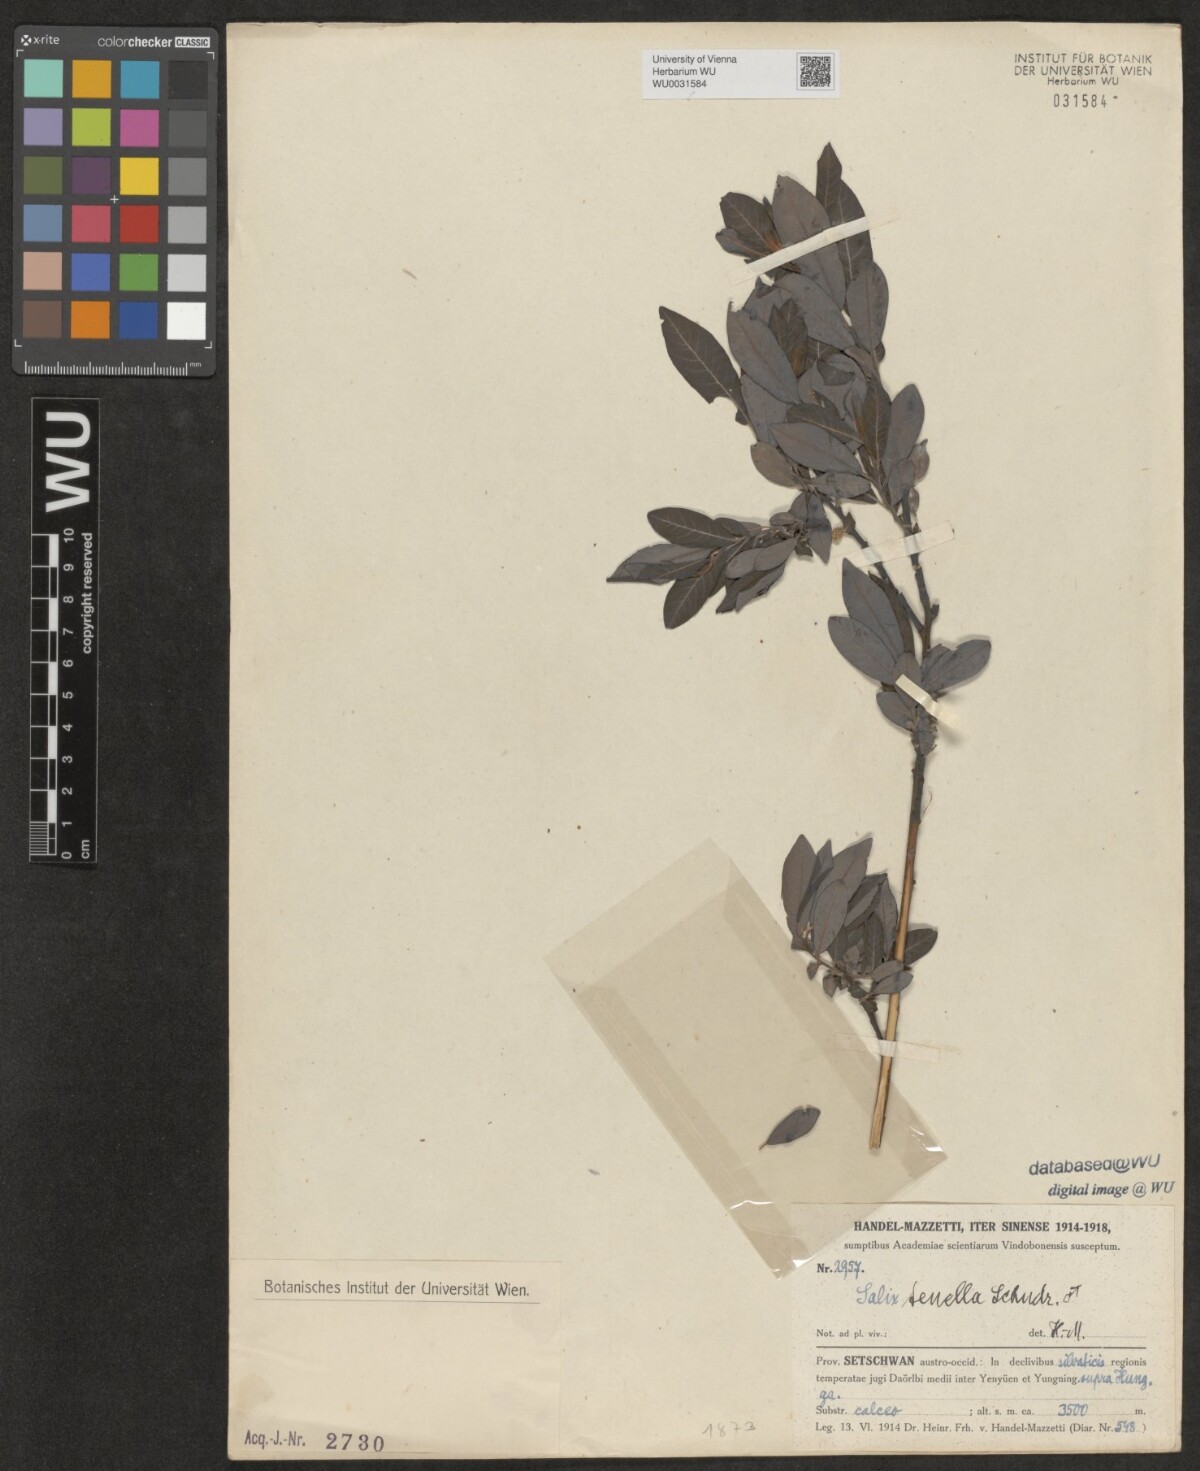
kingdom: Plantae
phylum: Tracheophyta
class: Magnoliopsida
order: Malpighiales
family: Salicaceae
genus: Salix
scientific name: Salix tenella
